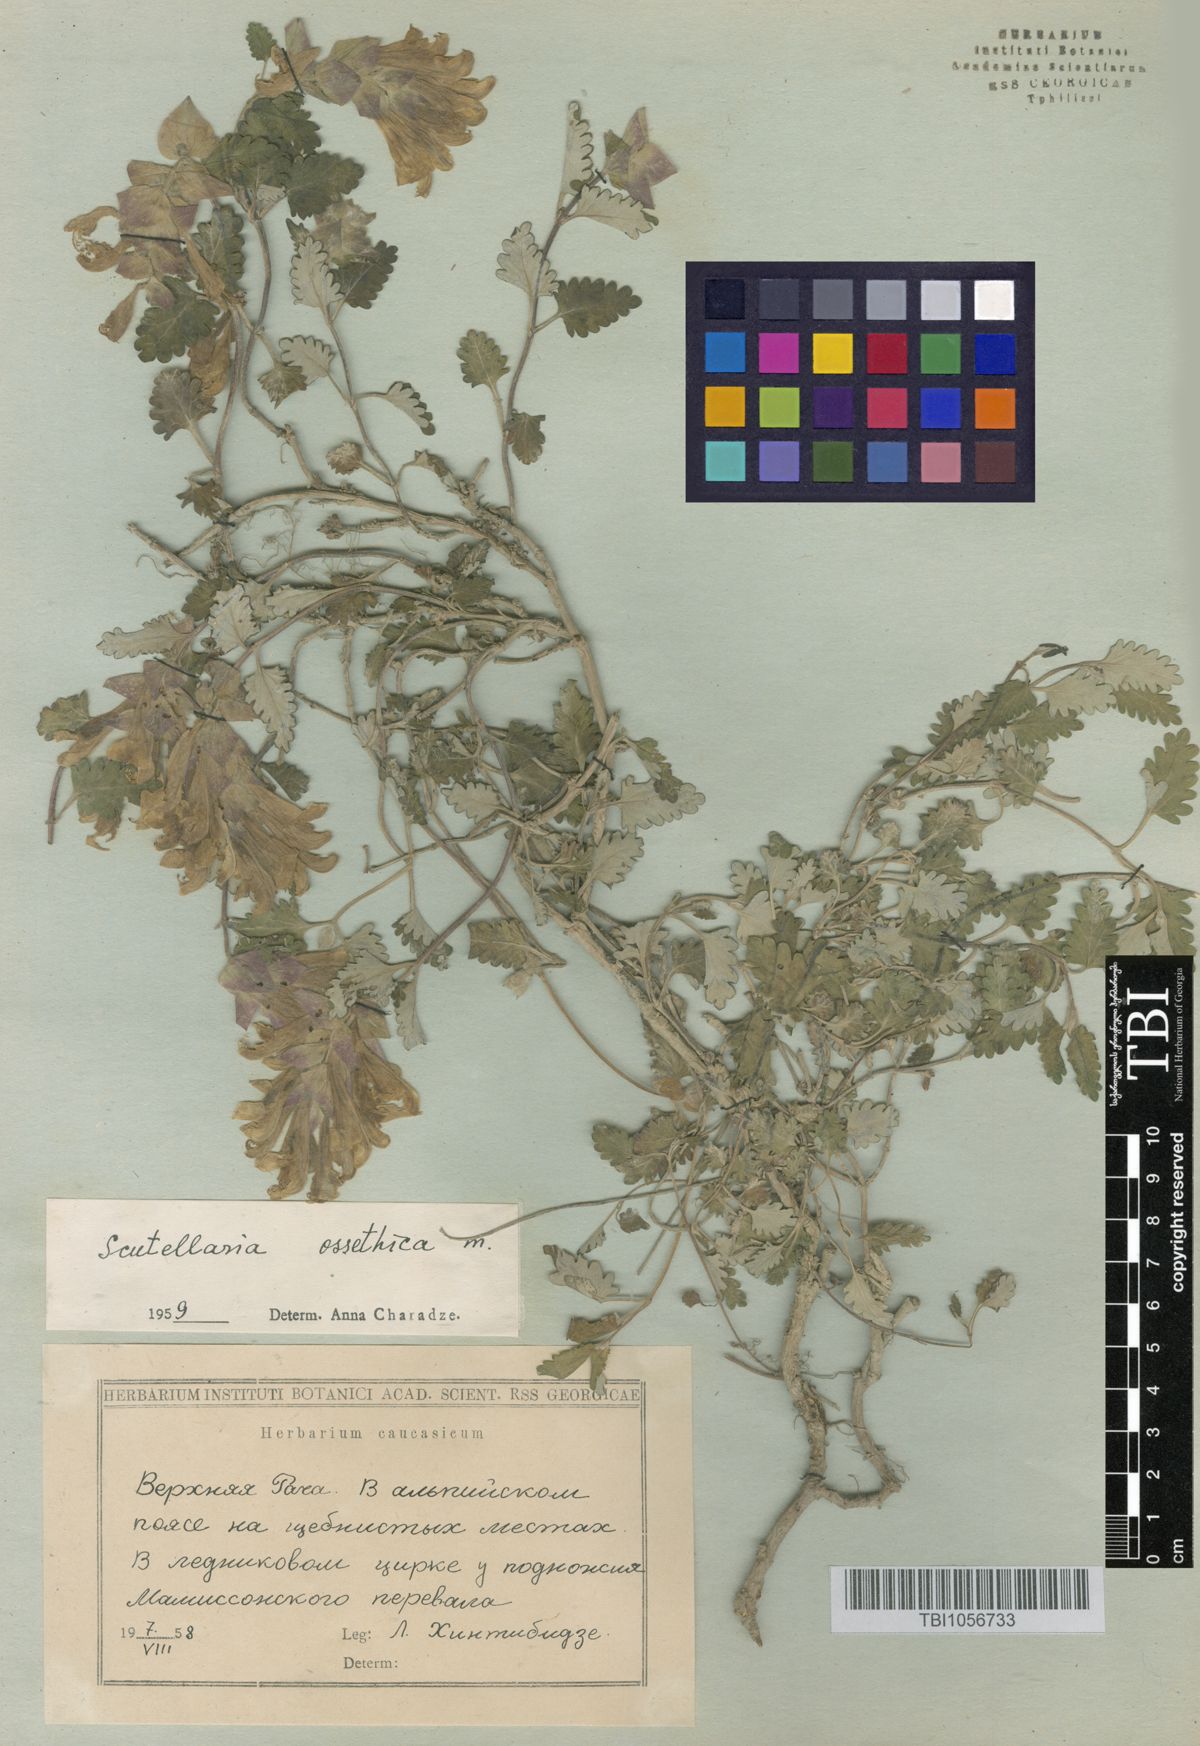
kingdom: Plantae
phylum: Tracheophyta
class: Magnoliopsida
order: Lamiales
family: Lamiaceae
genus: Scutellaria
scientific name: Scutellaria ossethica
